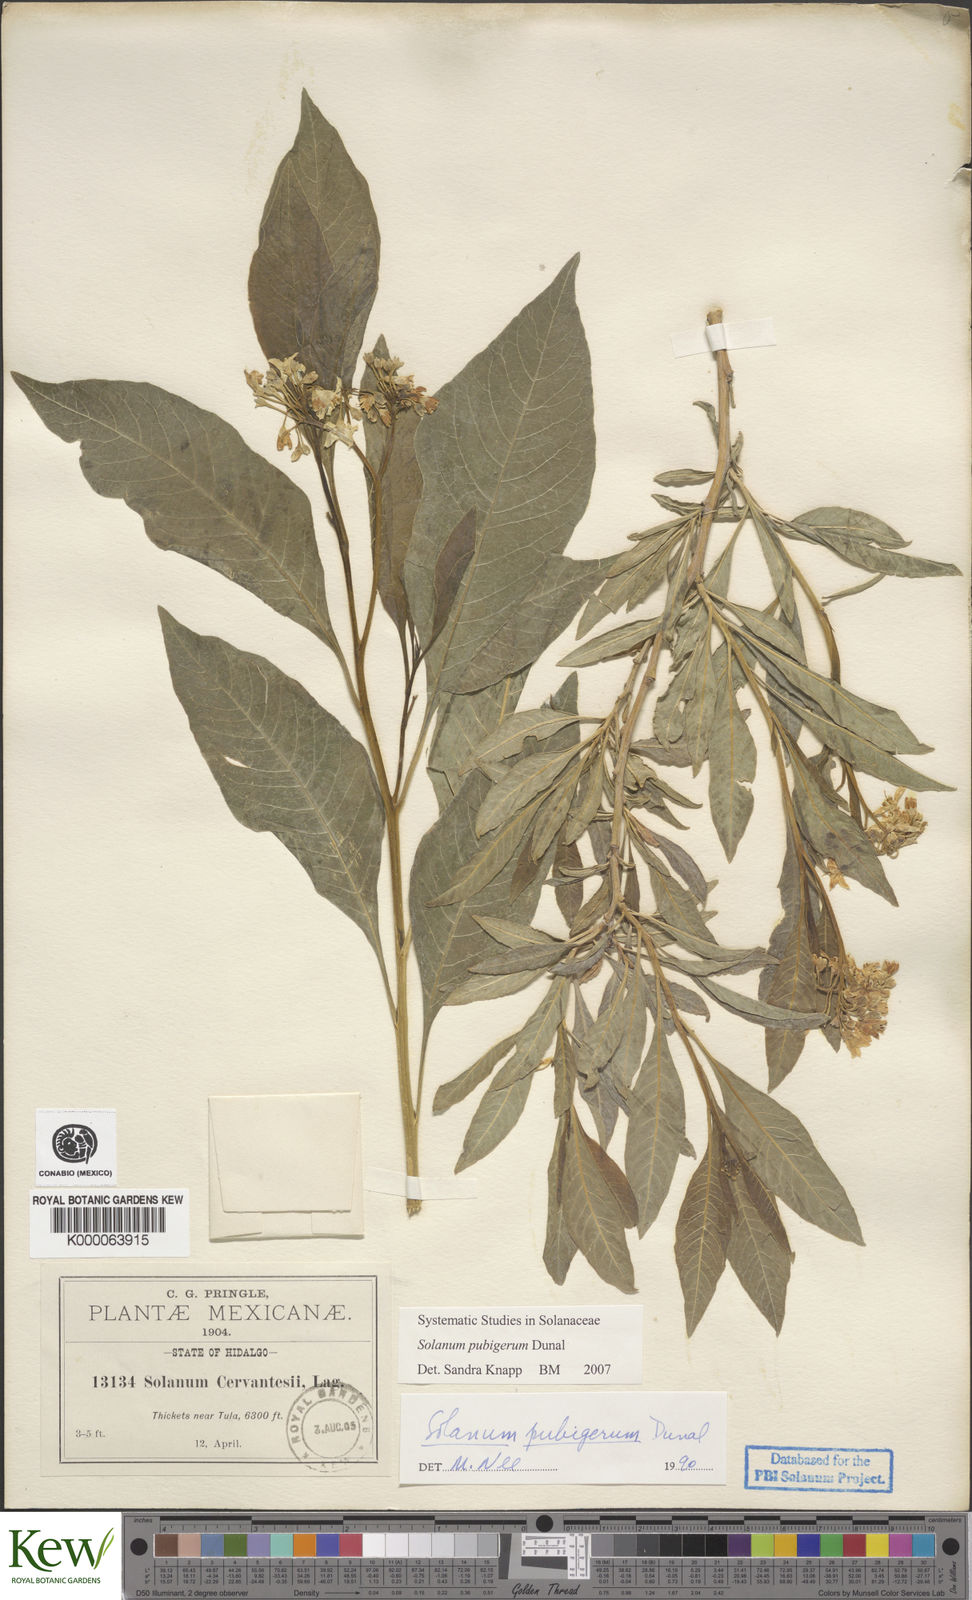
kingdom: Plantae
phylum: Tracheophyta
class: Magnoliopsida
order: Solanales
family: Solanaceae
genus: Solanum
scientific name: Solanum pubigerum
